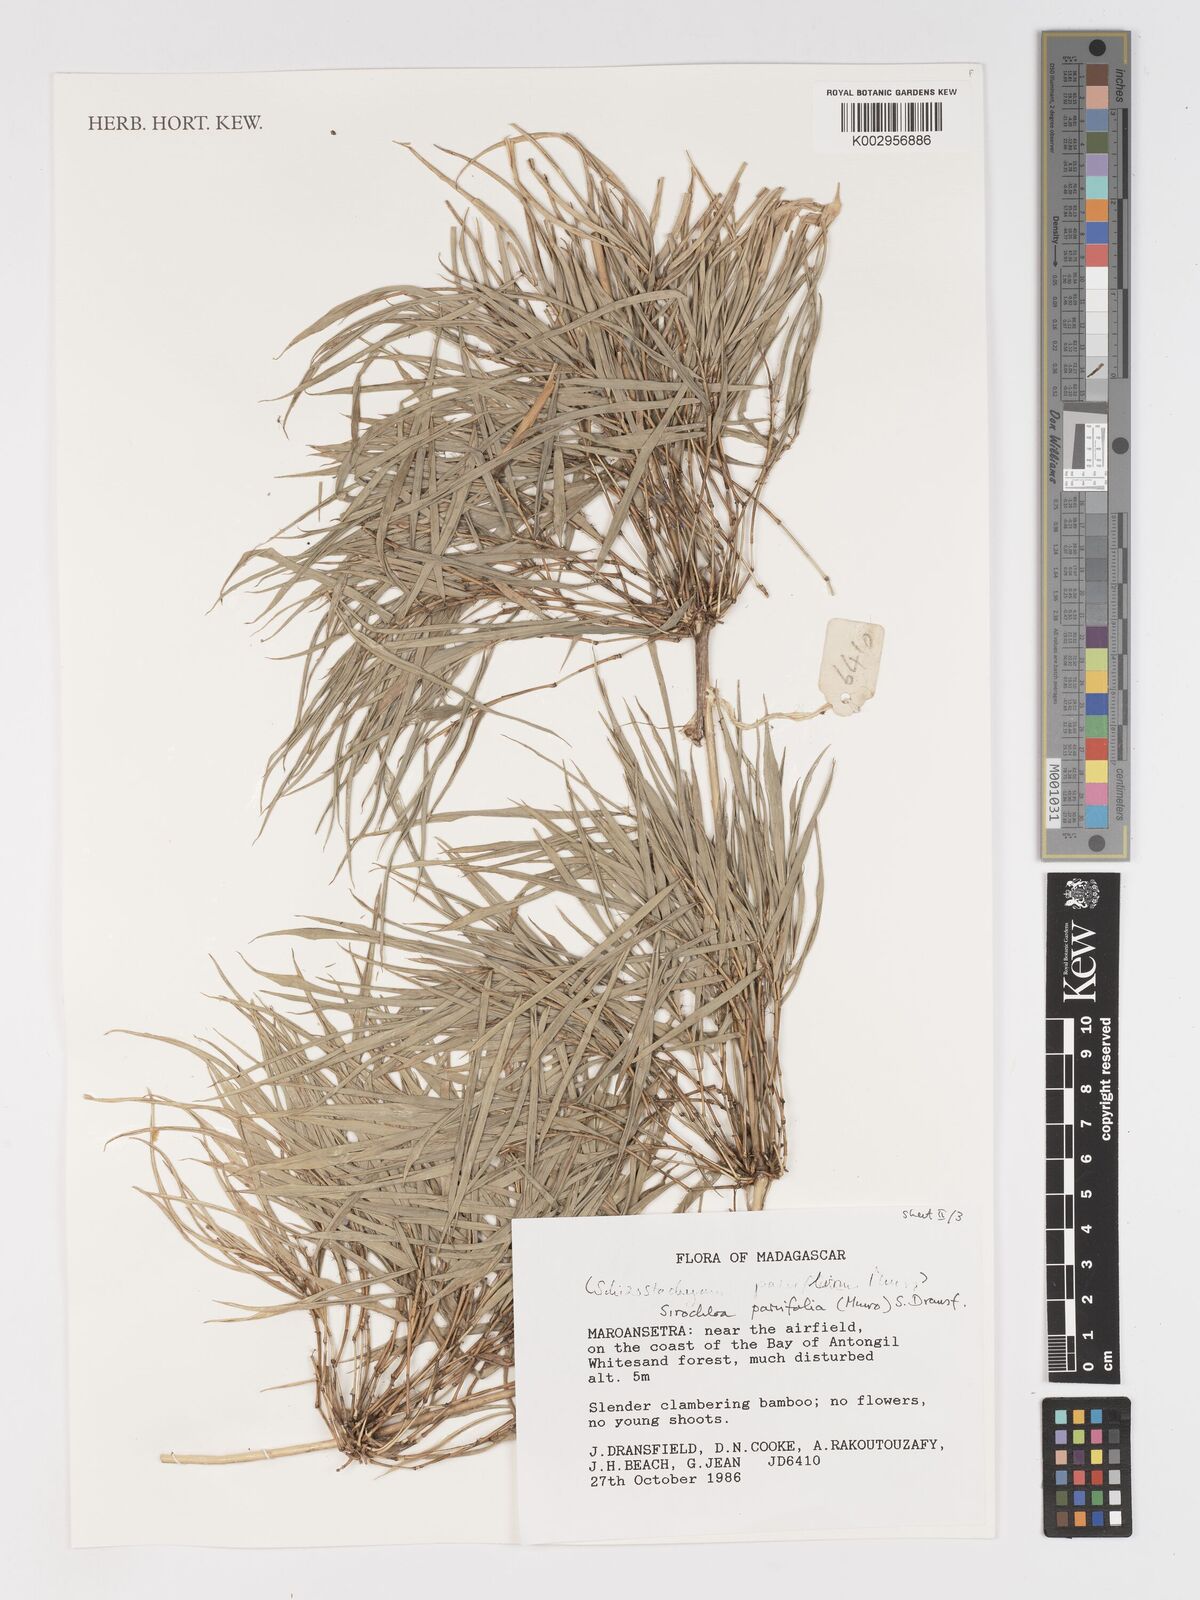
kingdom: Plantae
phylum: Tracheophyta
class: Liliopsida
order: Poales
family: Poaceae
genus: Sirochloa
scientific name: Sirochloa parvifolia
